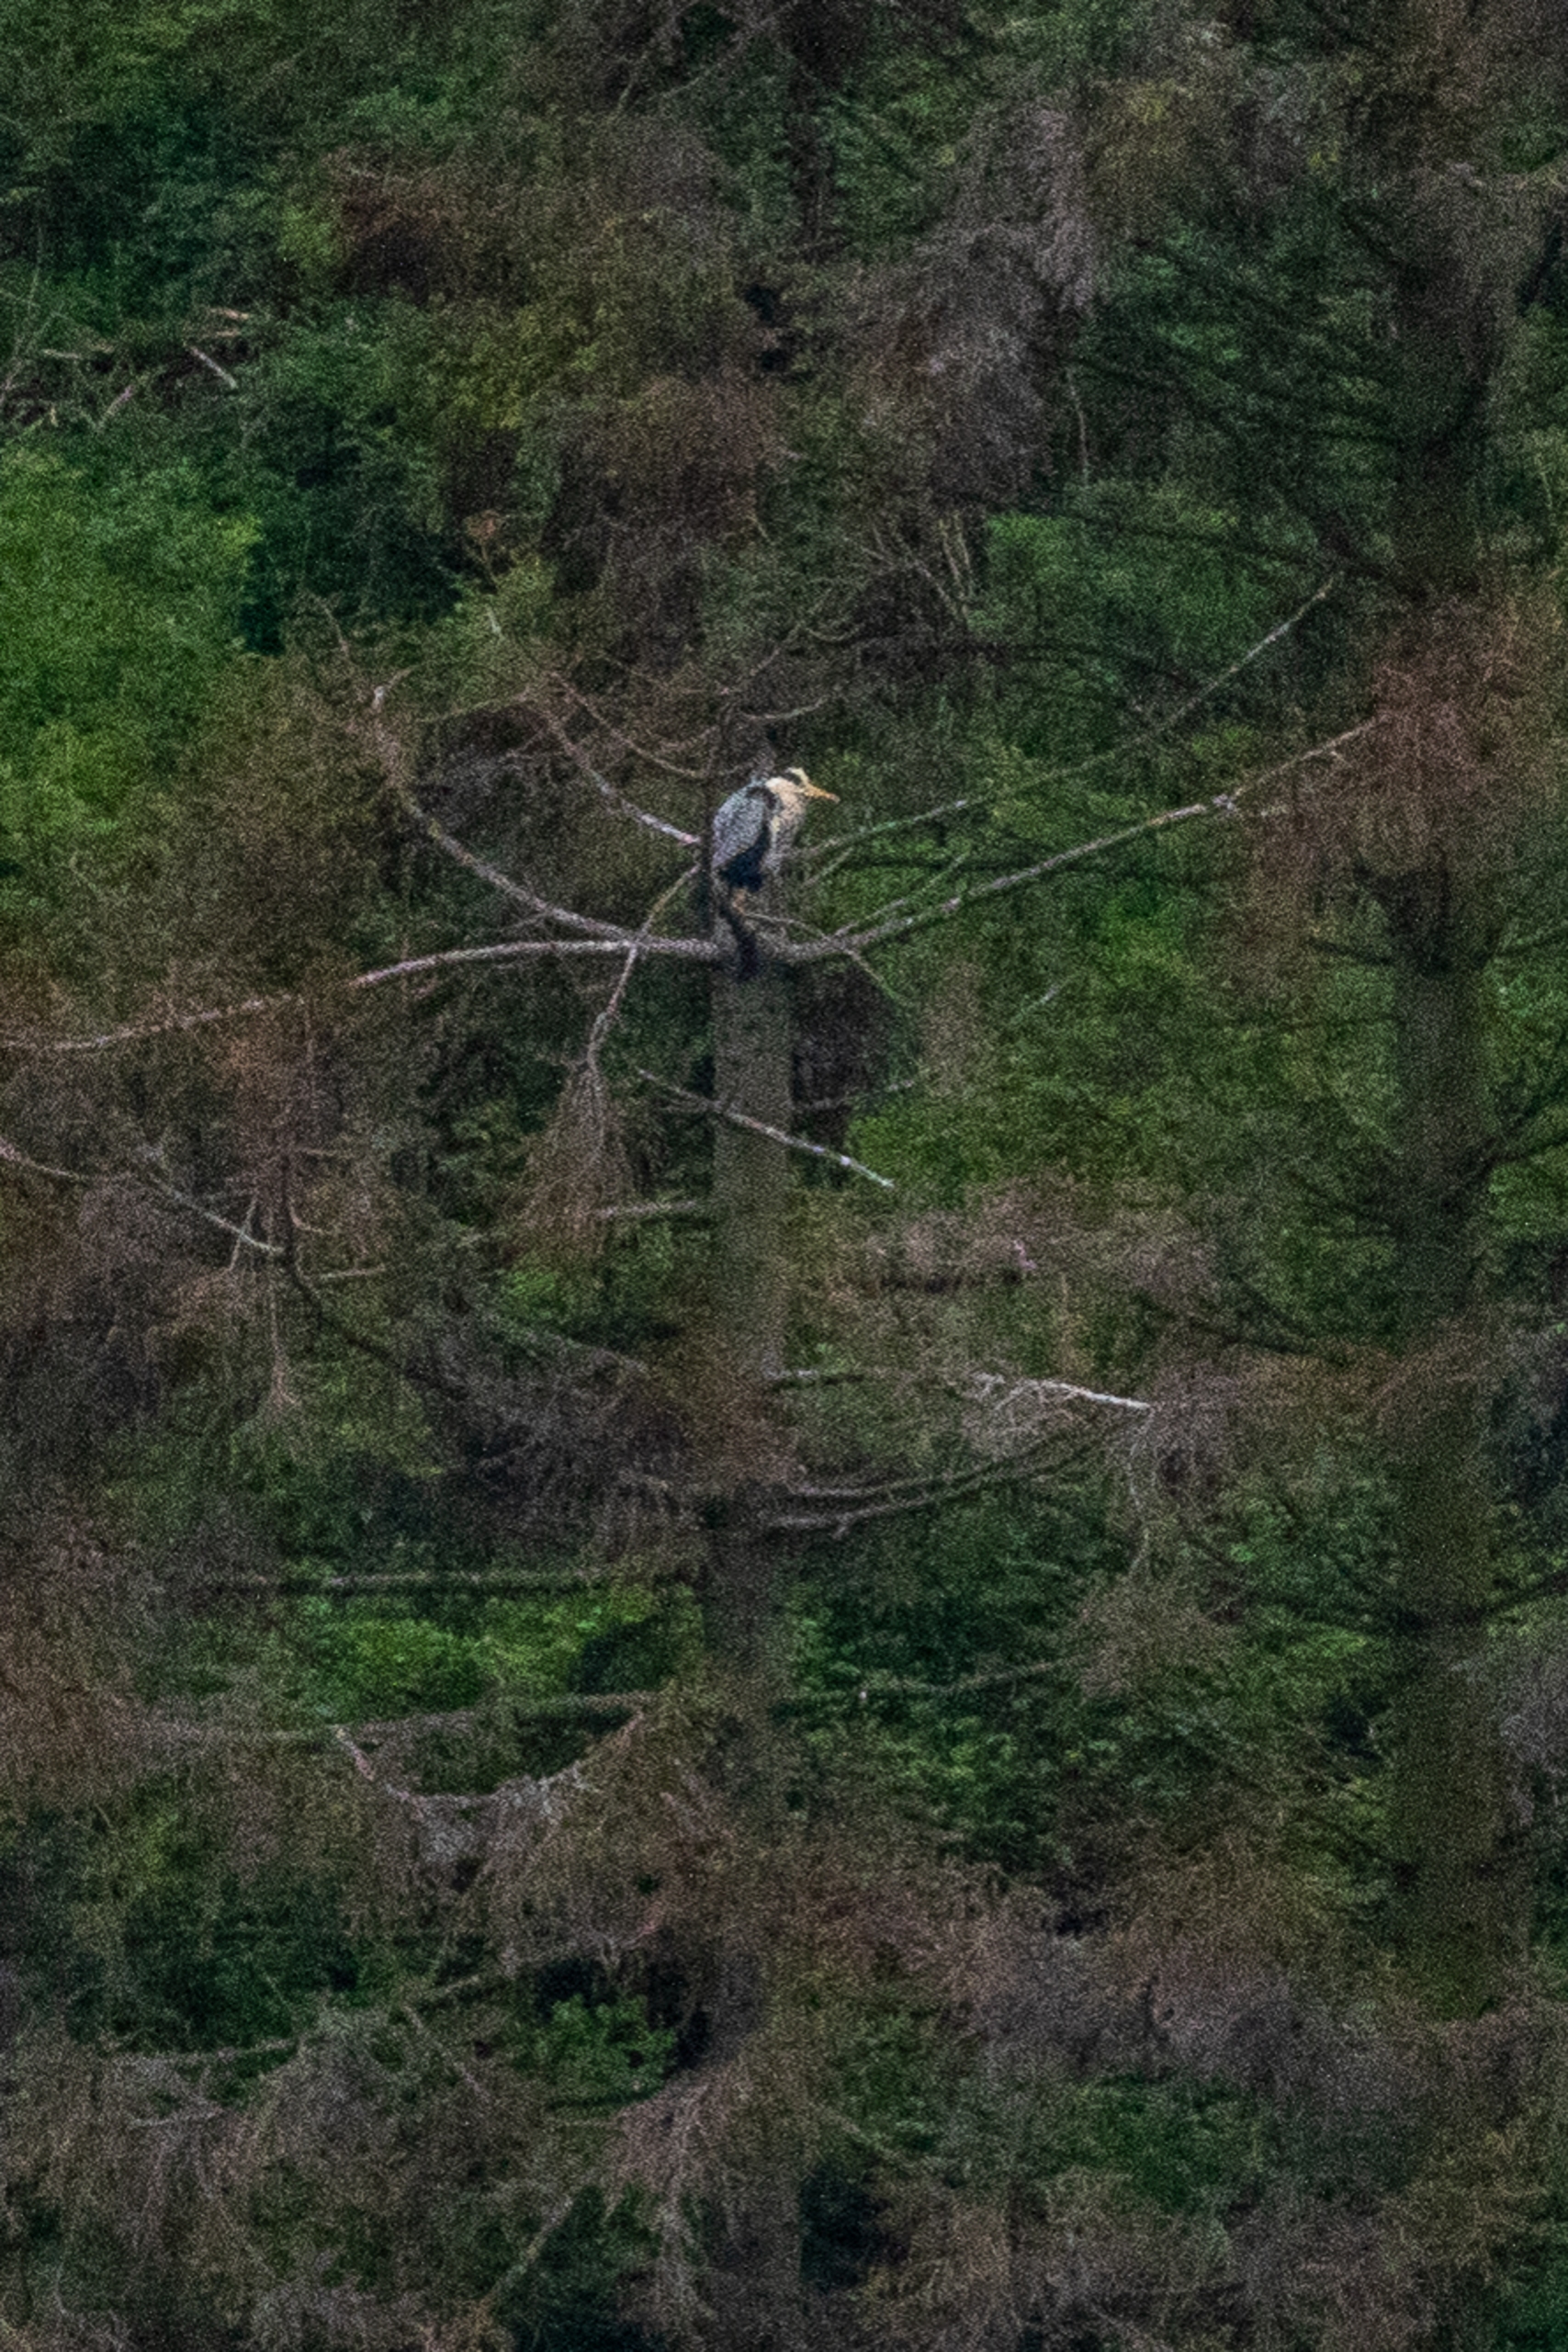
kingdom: Animalia
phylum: Chordata
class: Aves
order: Pelecaniformes
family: Ardeidae
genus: Ardea
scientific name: Ardea cinerea
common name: Fiskehejre
